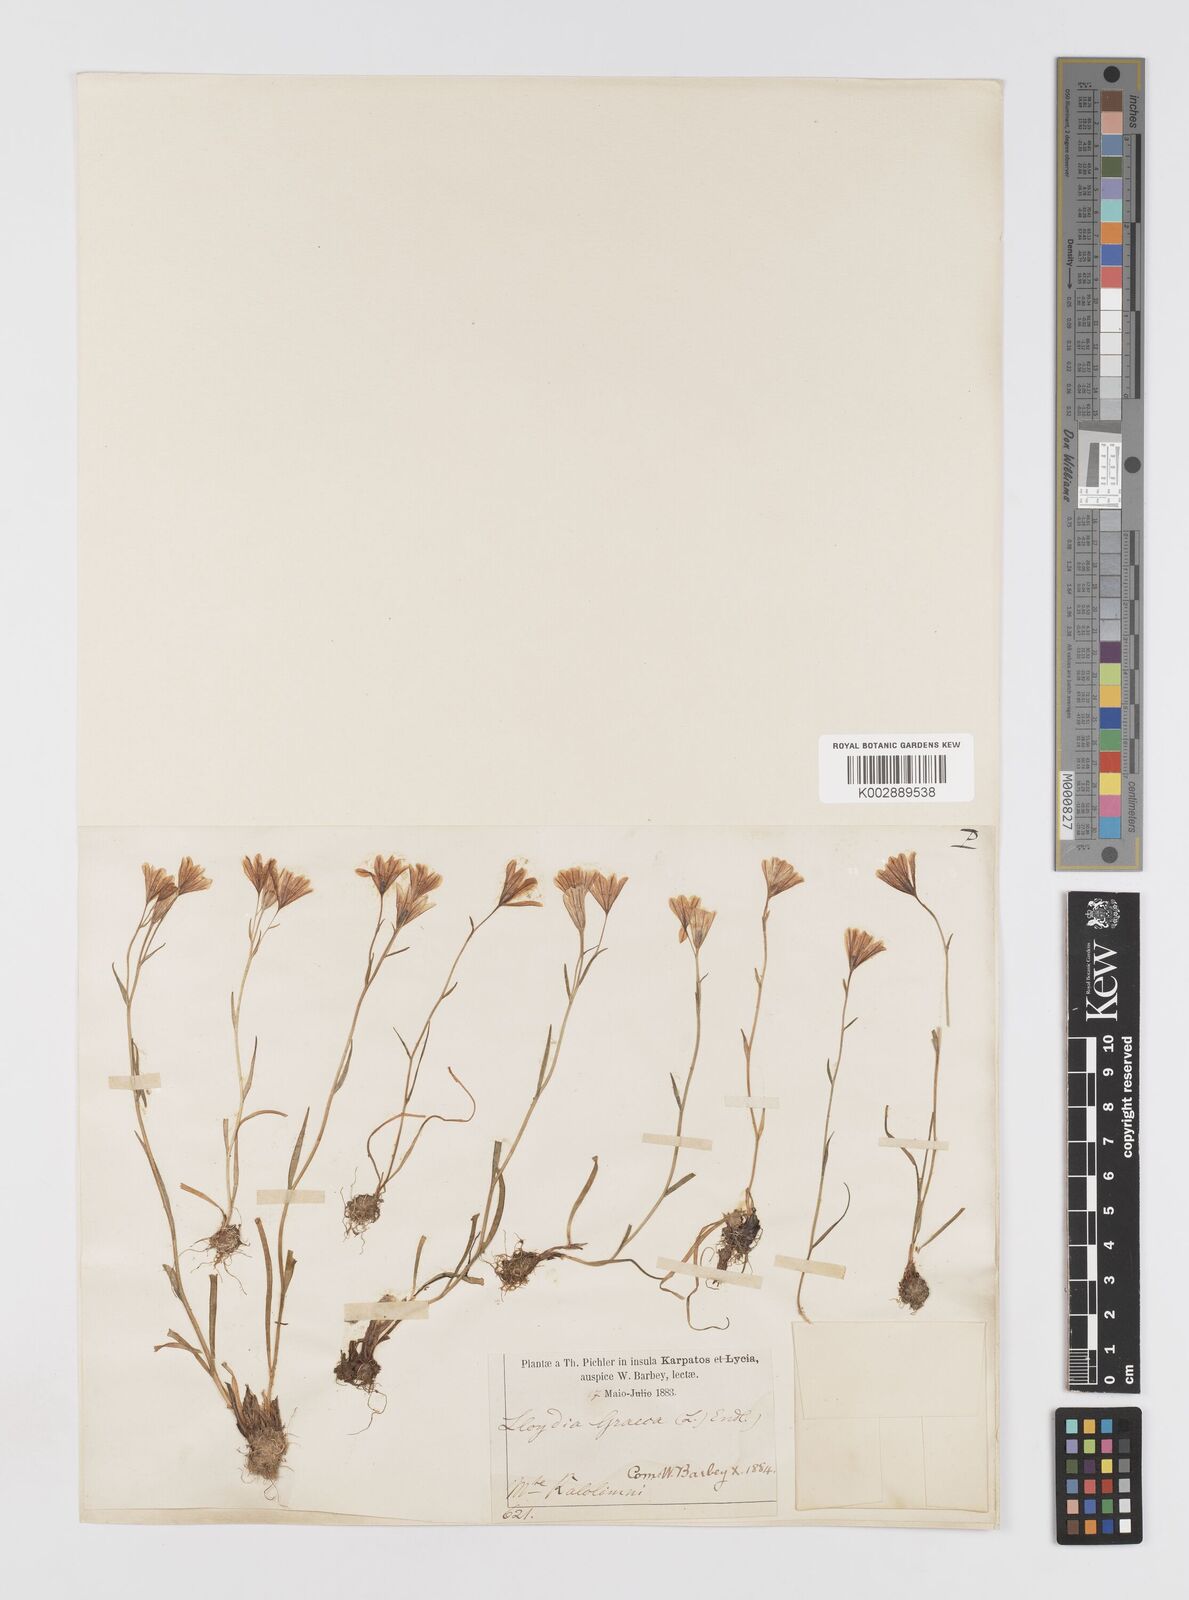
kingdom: Plantae
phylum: Tracheophyta
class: Liliopsida
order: Liliales
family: Liliaceae
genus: Gagea
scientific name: Gagea graeca
